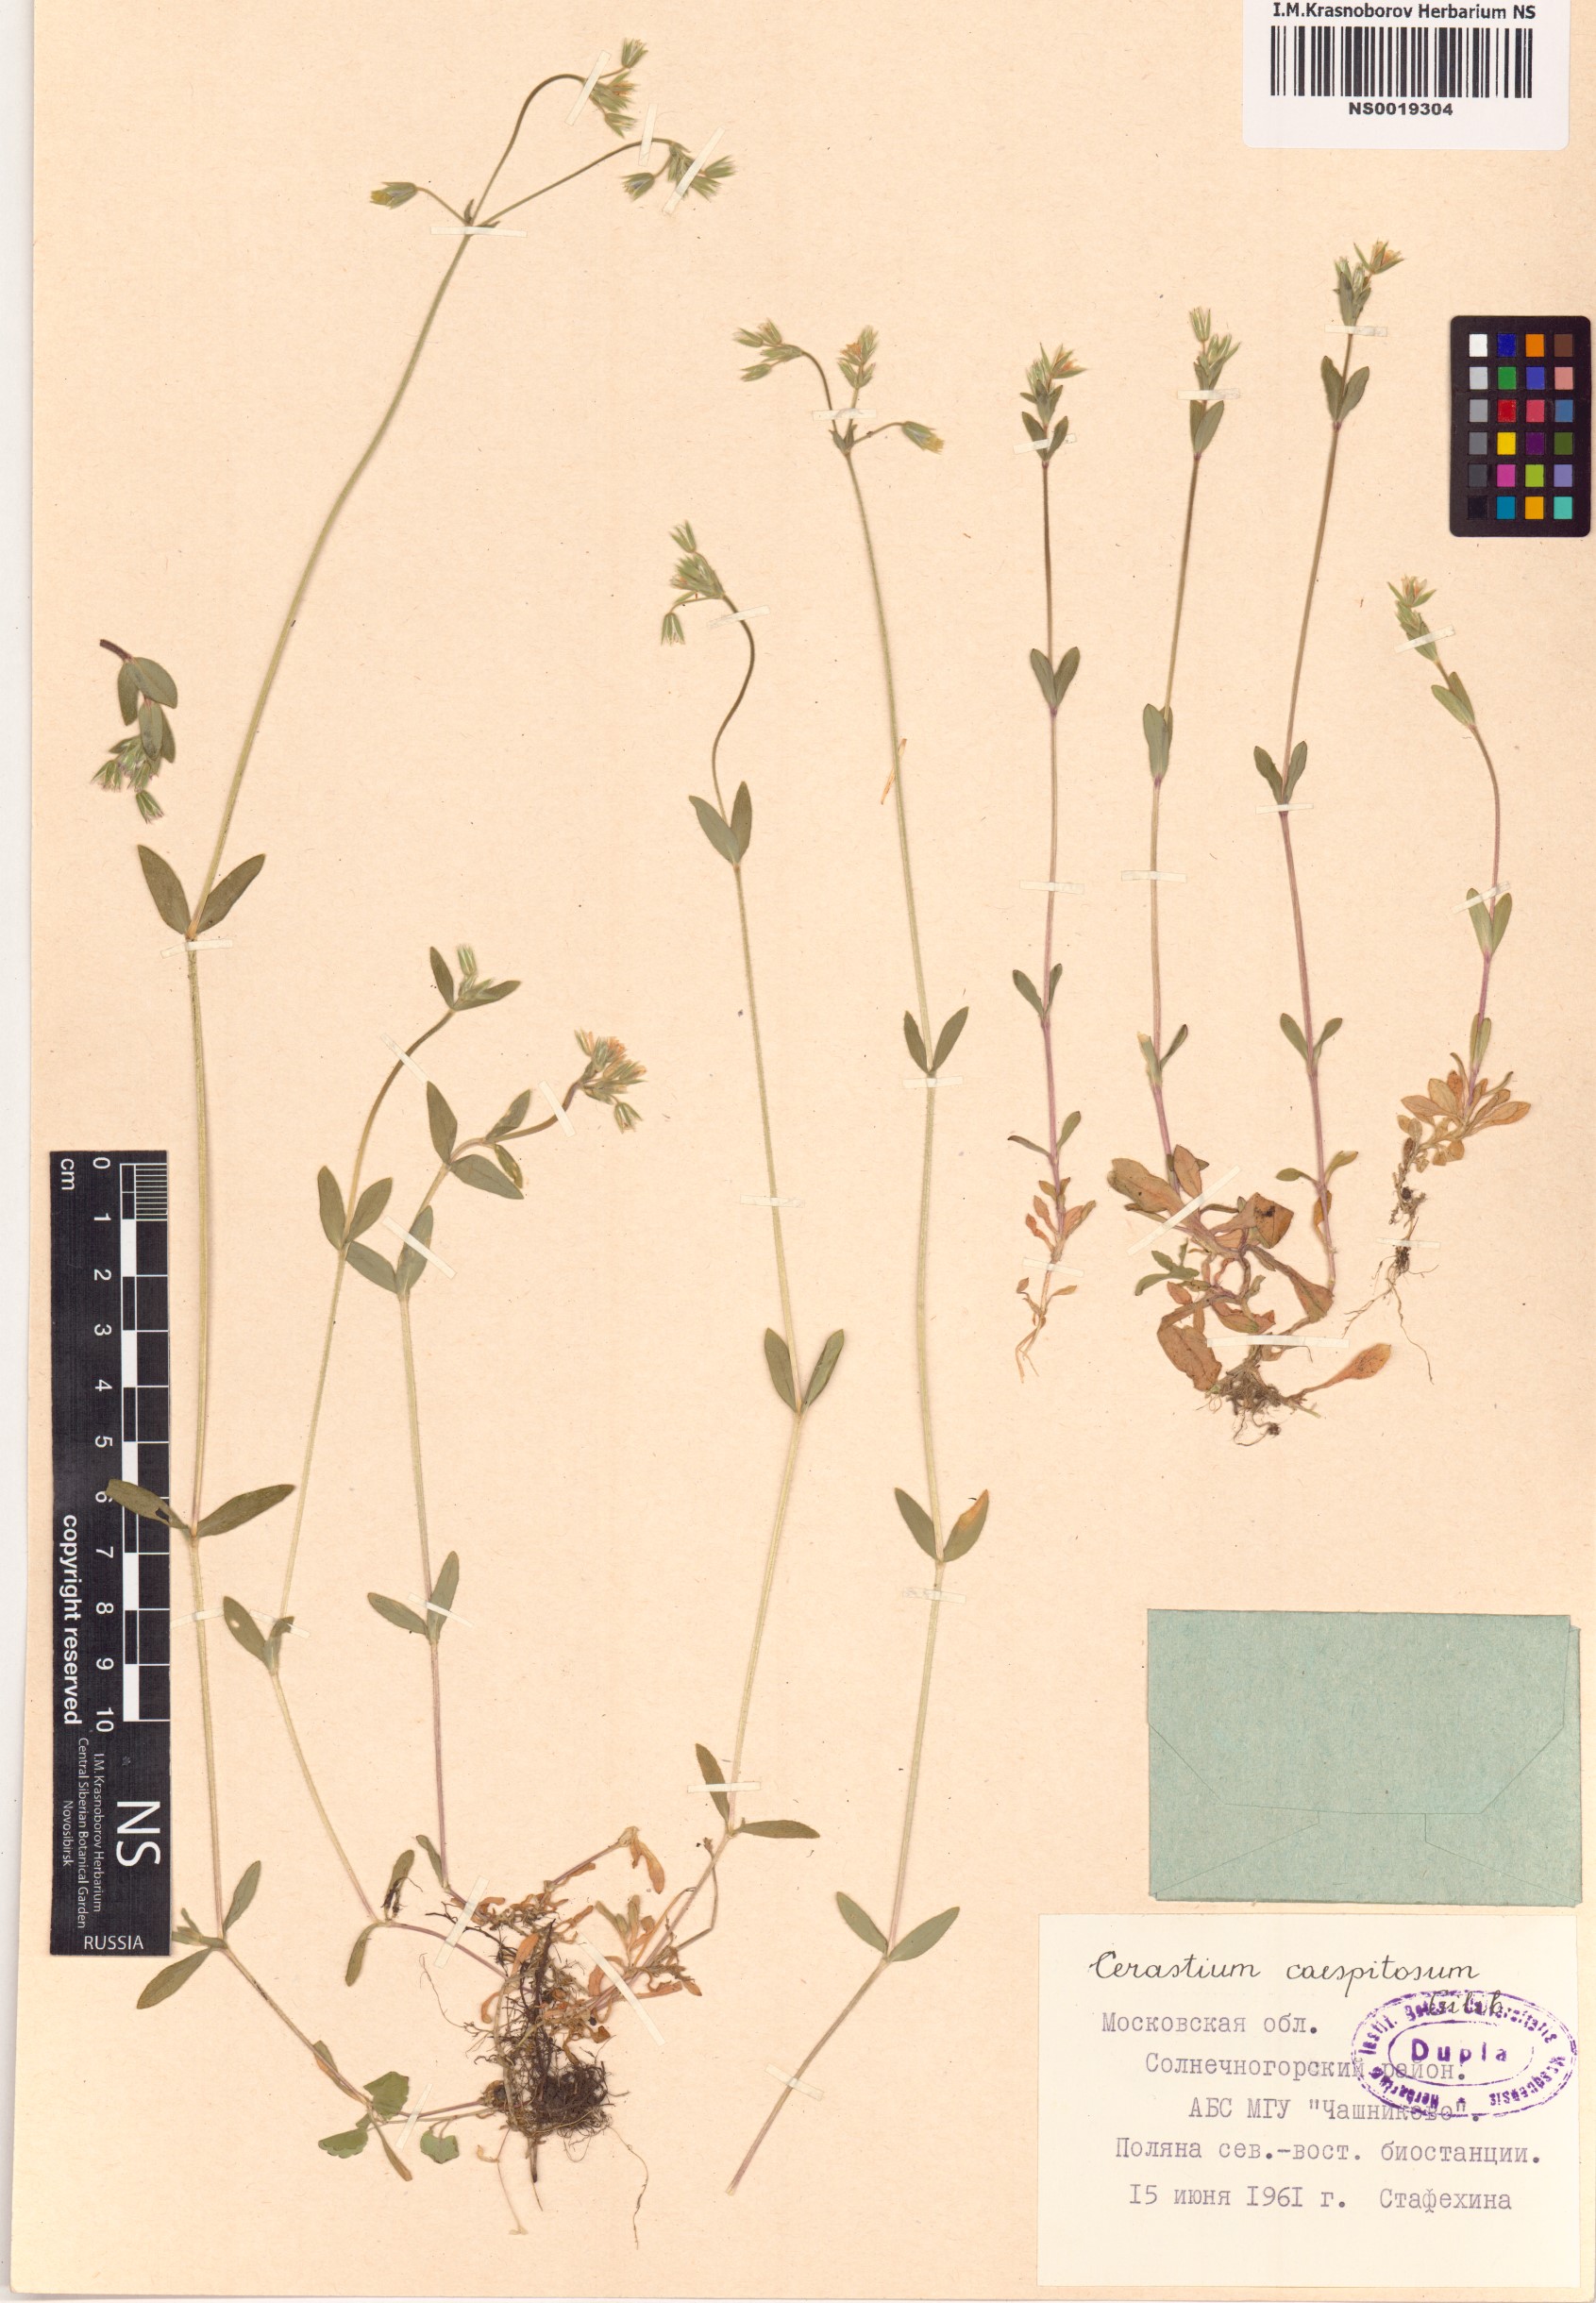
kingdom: Plantae
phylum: Tracheophyta
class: Magnoliopsida
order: Caryophyllales
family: Caryophyllaceae
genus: Cerastium
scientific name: Cerastium
